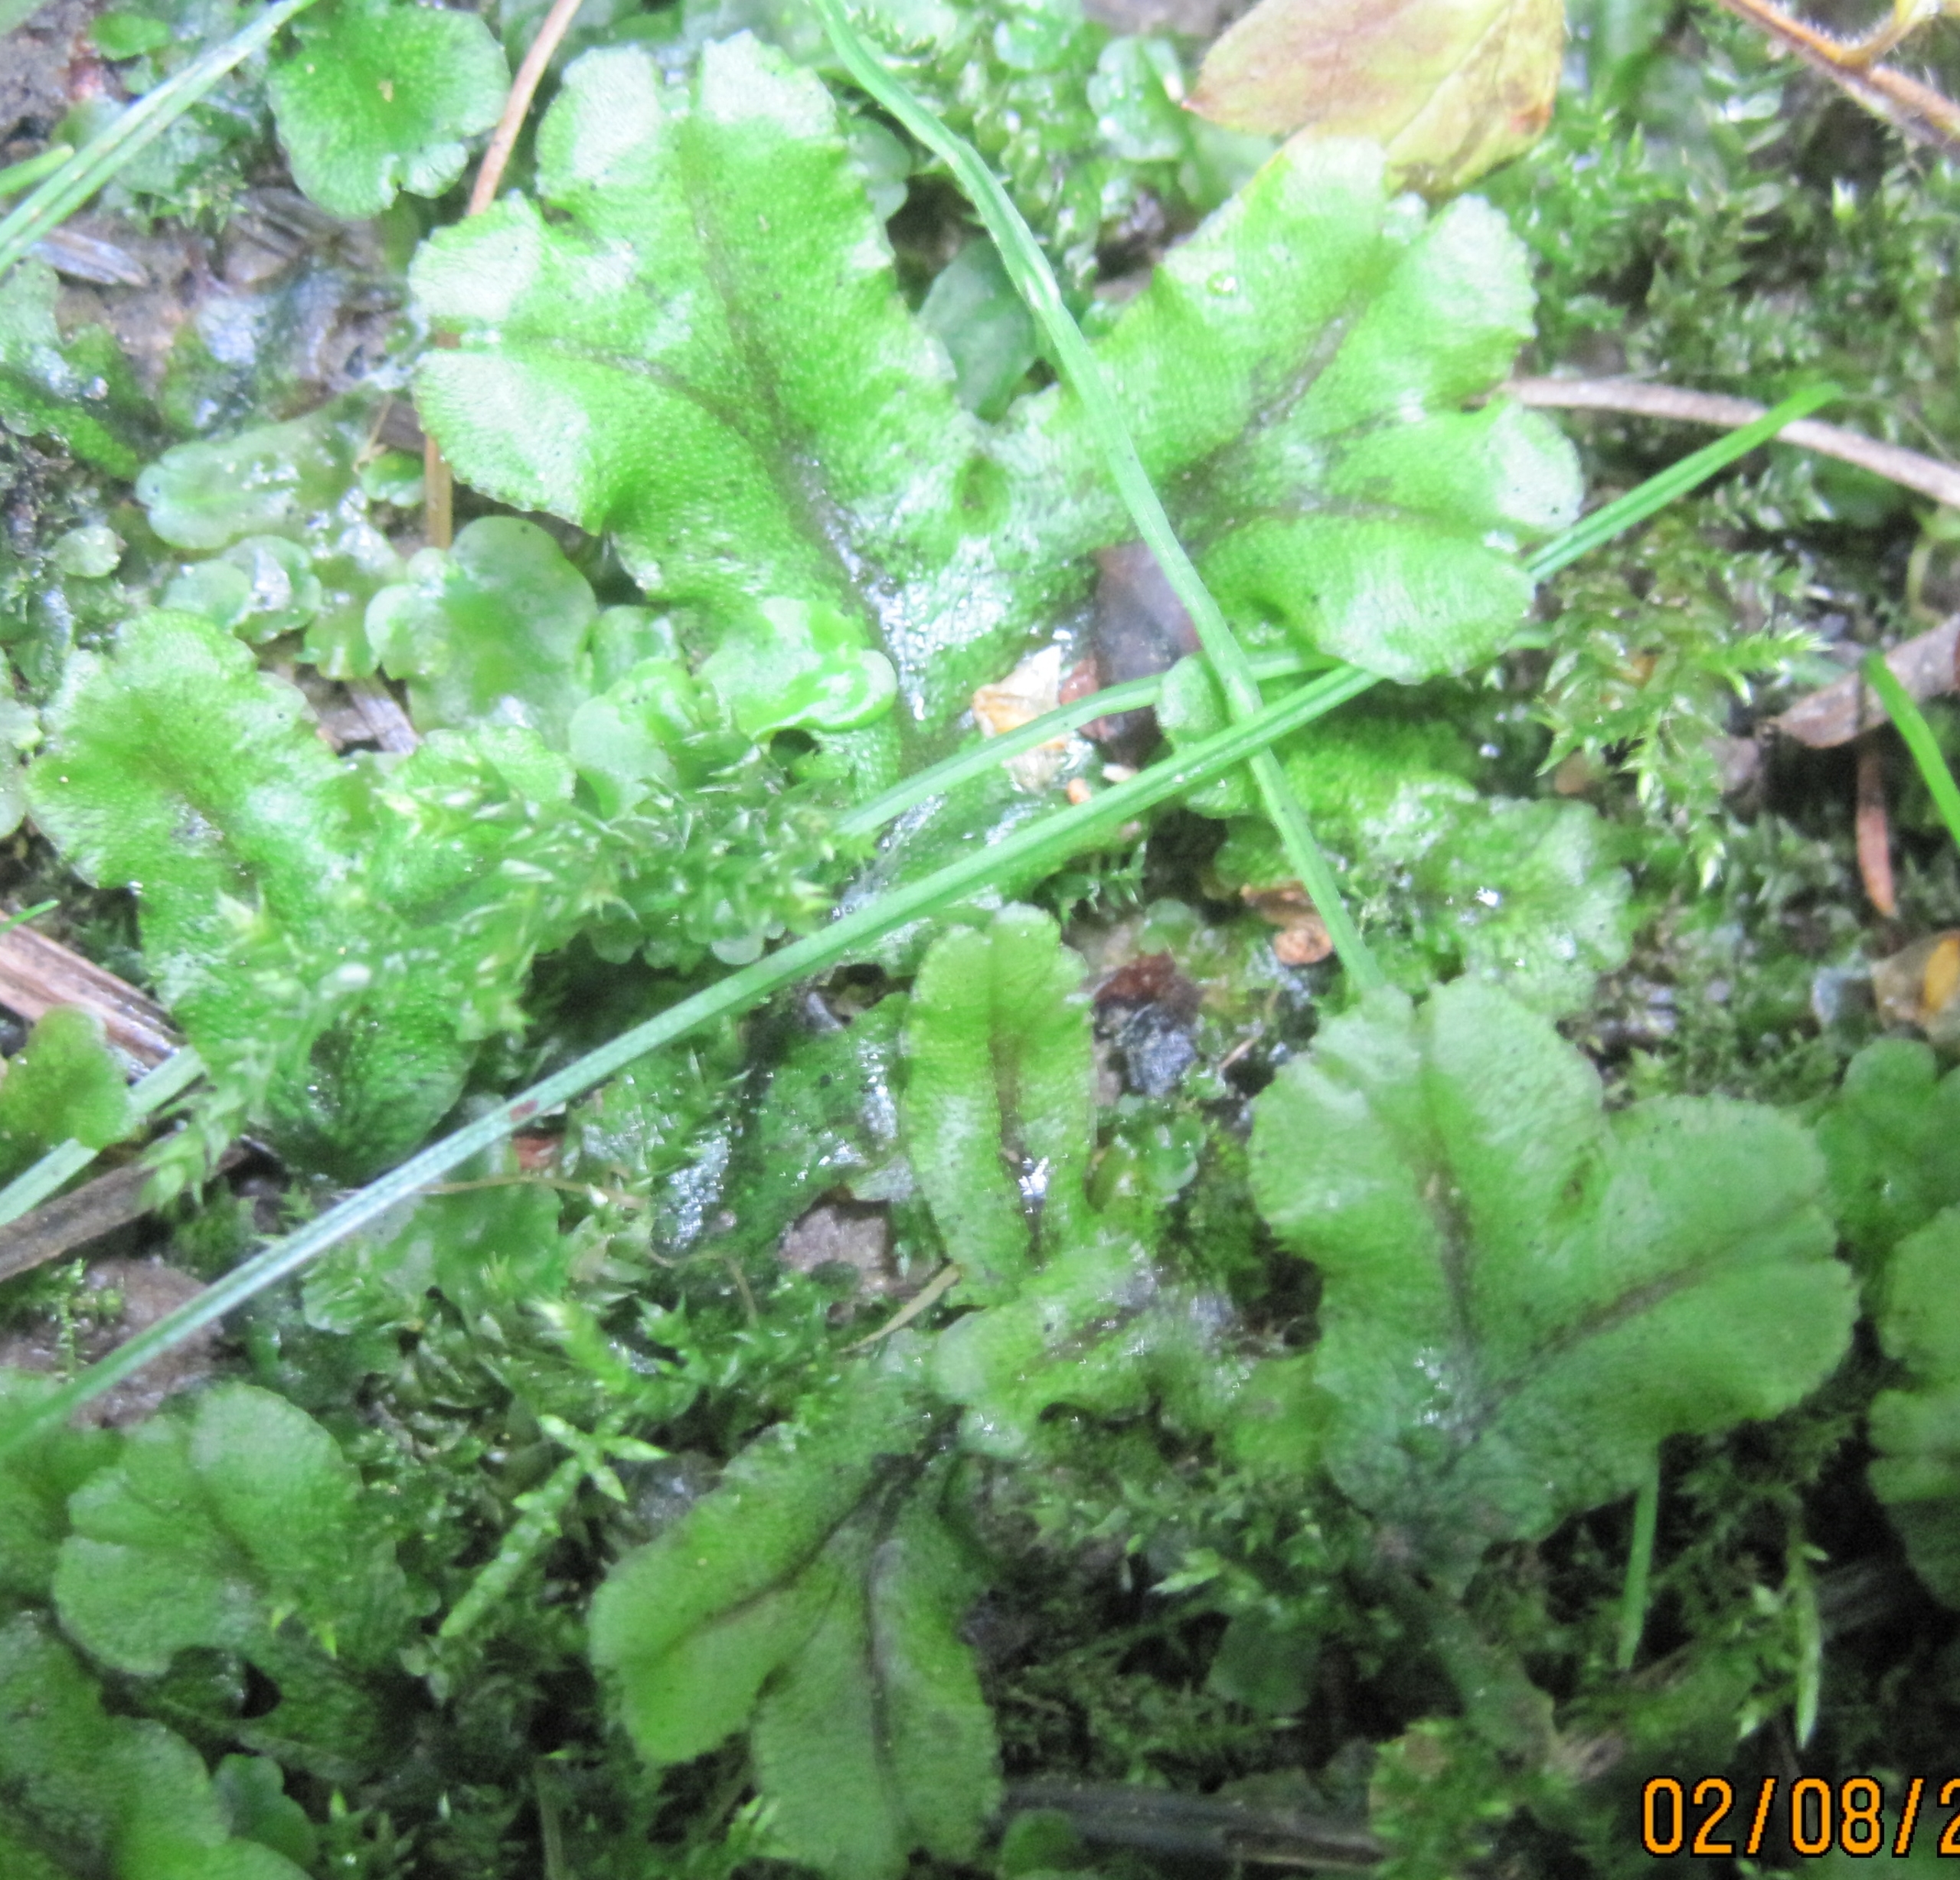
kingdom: Plantae
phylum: Marchantiophyta
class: Marchantiopsida
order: Marchantiales
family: Marchantiaceae
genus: Marchantia
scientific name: Marchantia polymorpha
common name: Mose-lungemos
